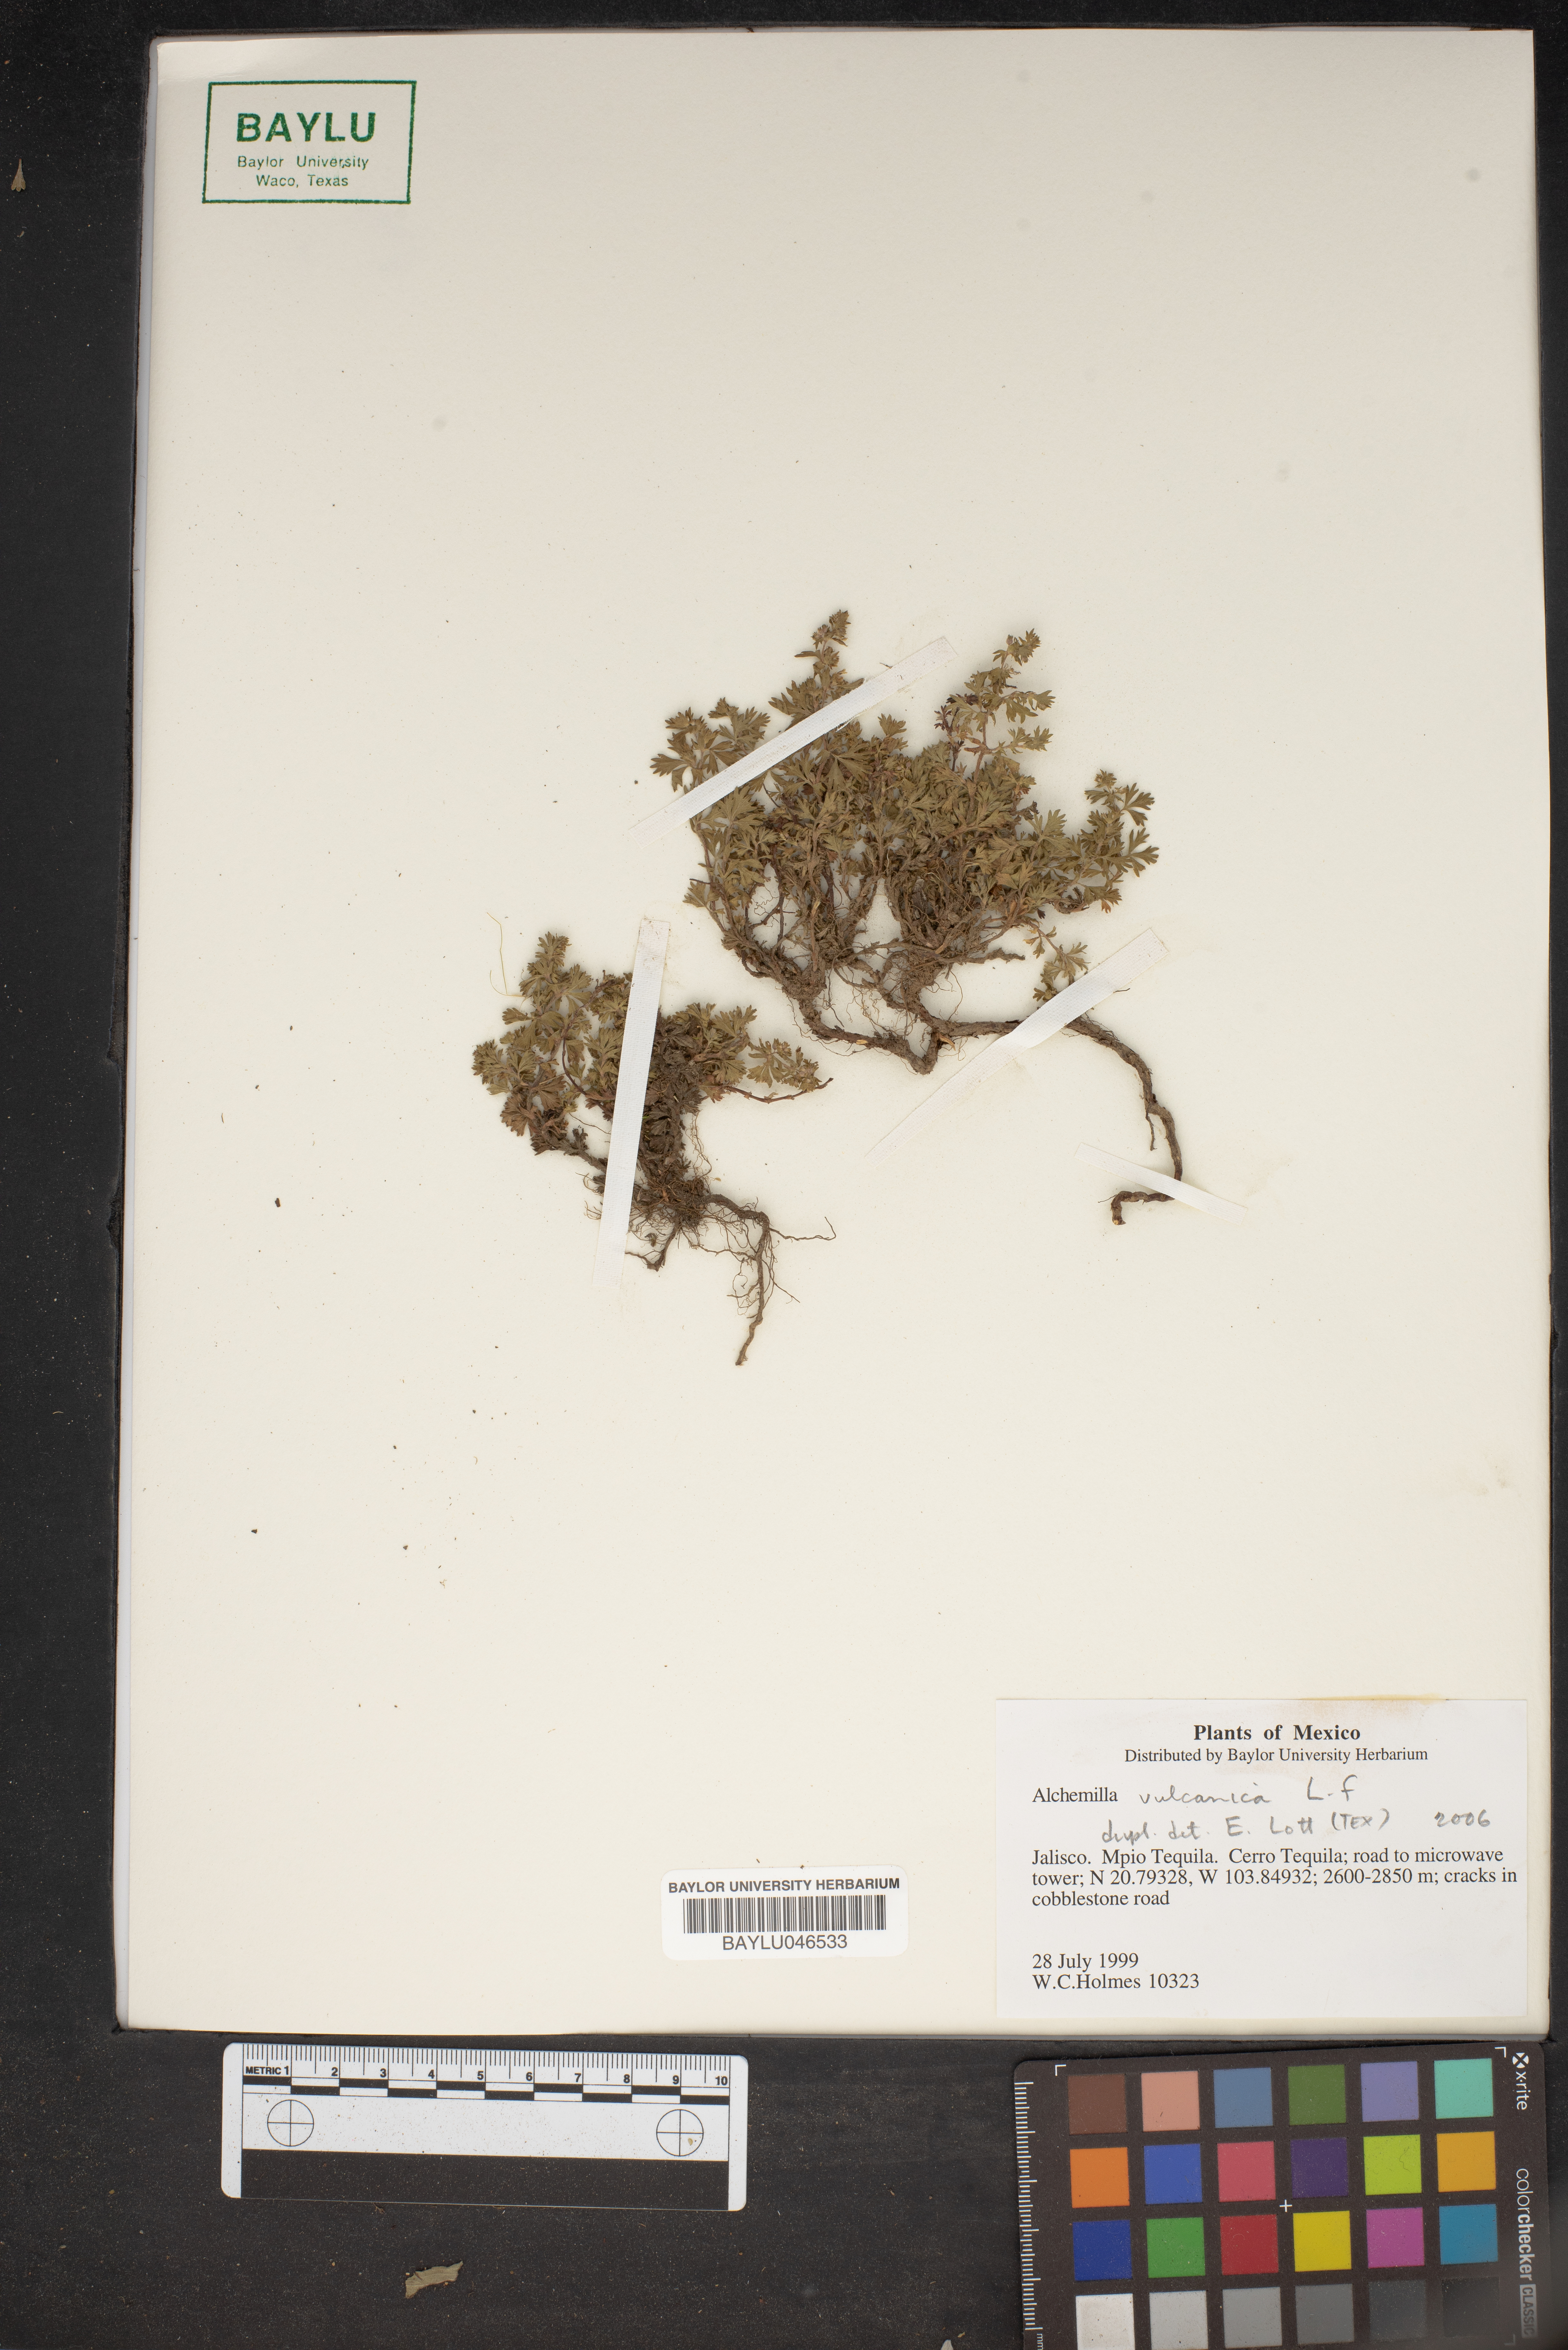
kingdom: Plantae
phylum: Tracheophyta
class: Magnoliopsida
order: Rosales
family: Rosaceae
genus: Lachemilla
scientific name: Lachemilla vulcanica
